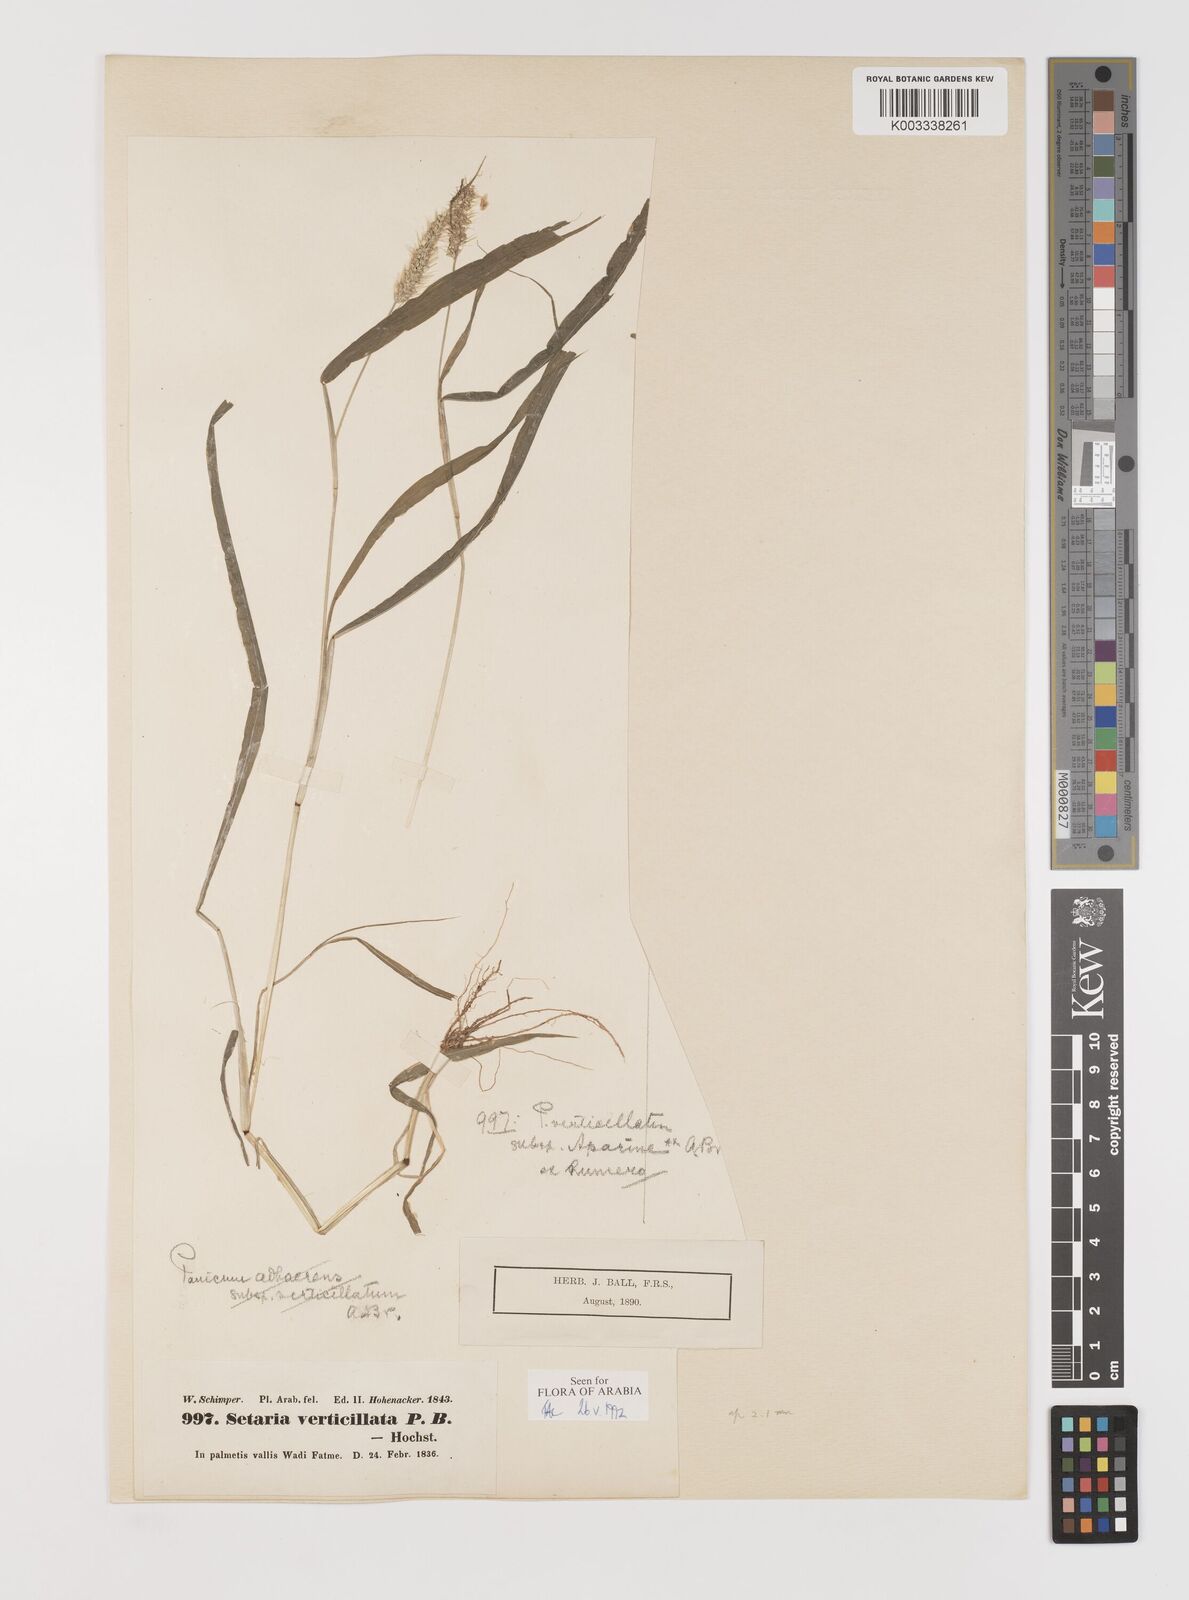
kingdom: Plantae
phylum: Tracheophyta
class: Liliopsida
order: Poales
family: Poaceae
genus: Setaria
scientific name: Setaria verticillata
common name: Hooked bristlegrass
